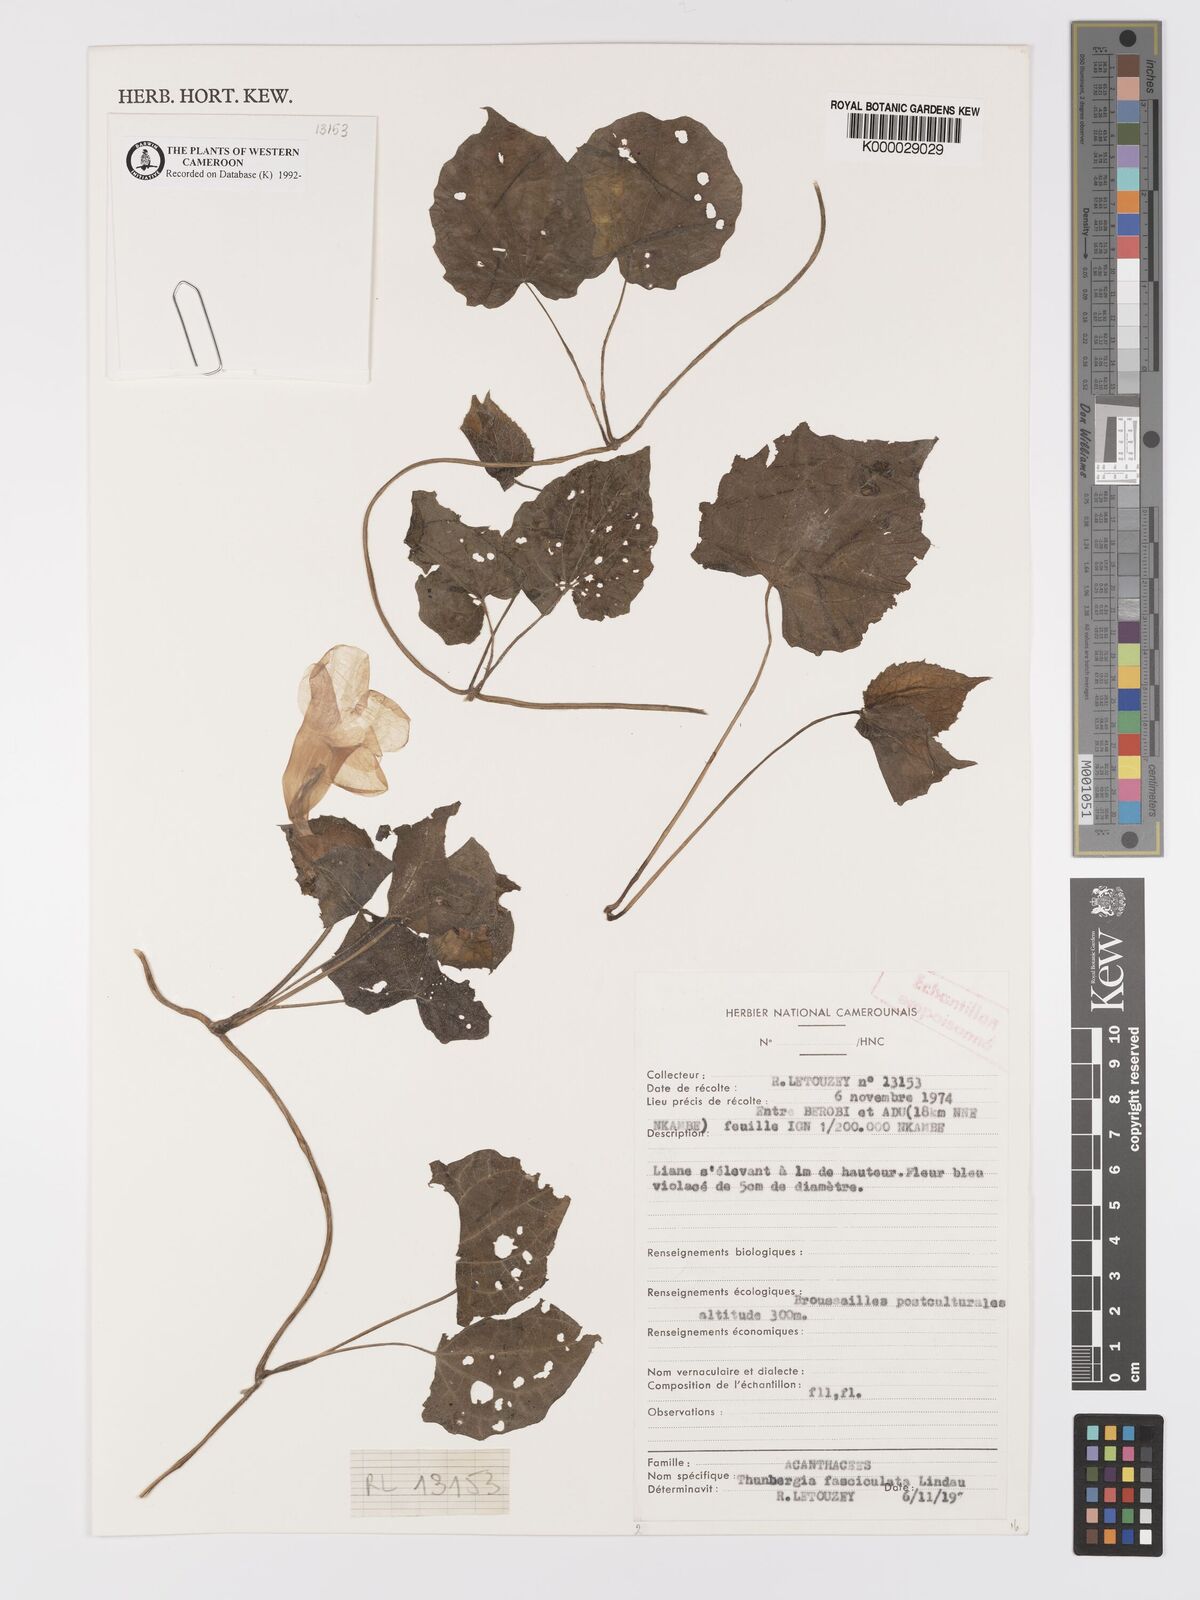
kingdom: Plantae
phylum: Tracheophyta
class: Magnoliopsida
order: Lamiales
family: Acanthaceae
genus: Thunbergia
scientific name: Thunbergia fasciculata
